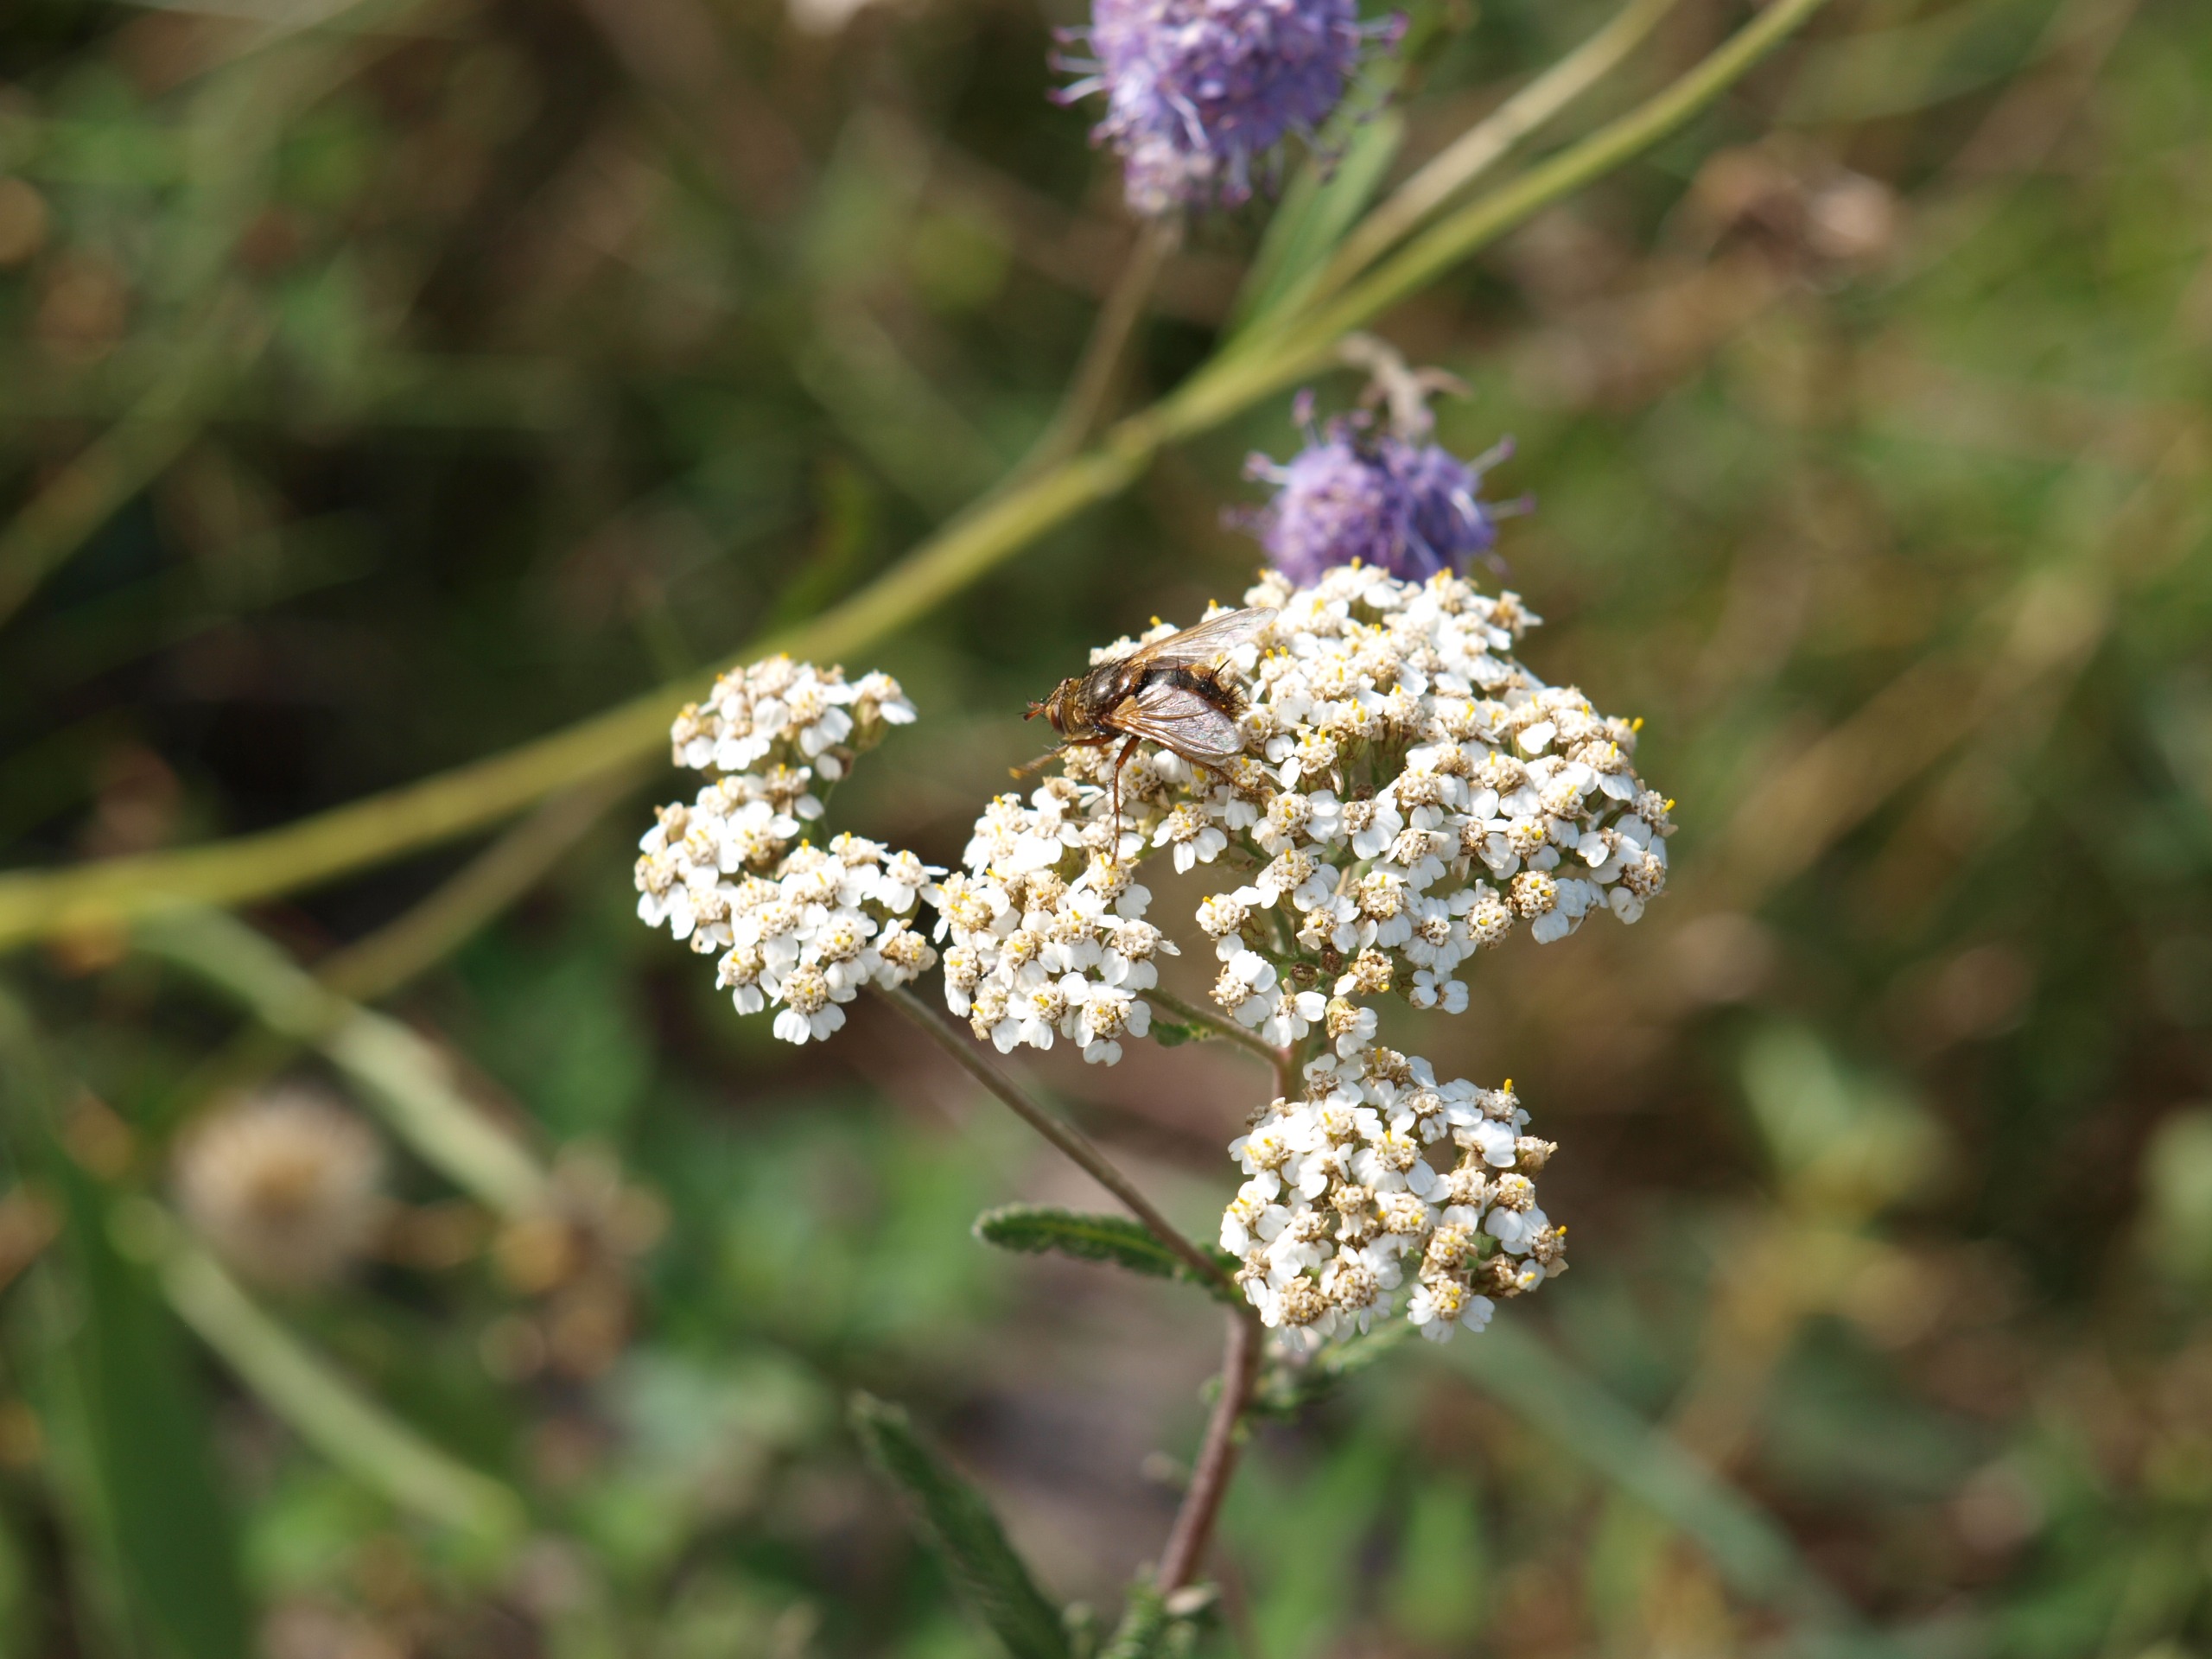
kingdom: Animalia
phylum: Arthropoda
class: Insecta
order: Diptera
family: Tachinidae
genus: Tachina
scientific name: Tachina fera
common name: Mellemfluen oskar
